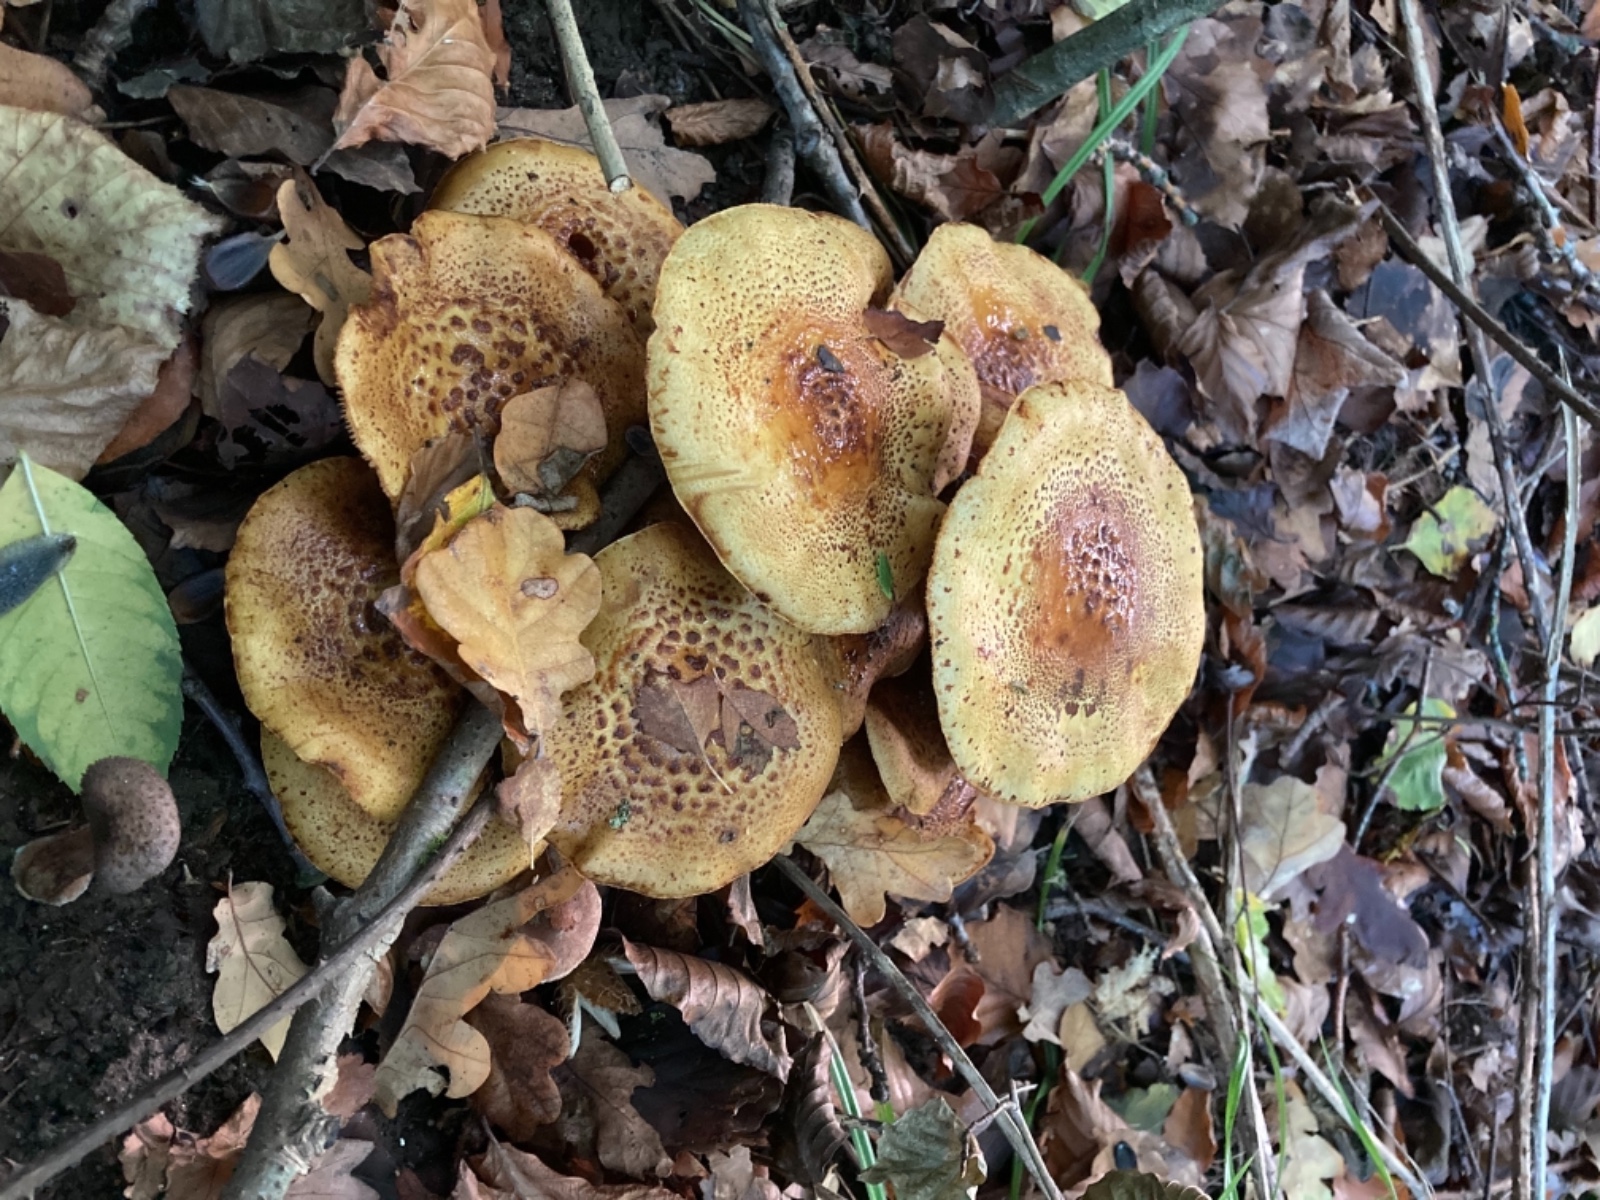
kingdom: Fungi
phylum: Basidiomycota
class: Agaricomycetes
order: Agaricales
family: Strophariaceae
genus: Pholiota
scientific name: Pholiota jahnii
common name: slimet skælhat
